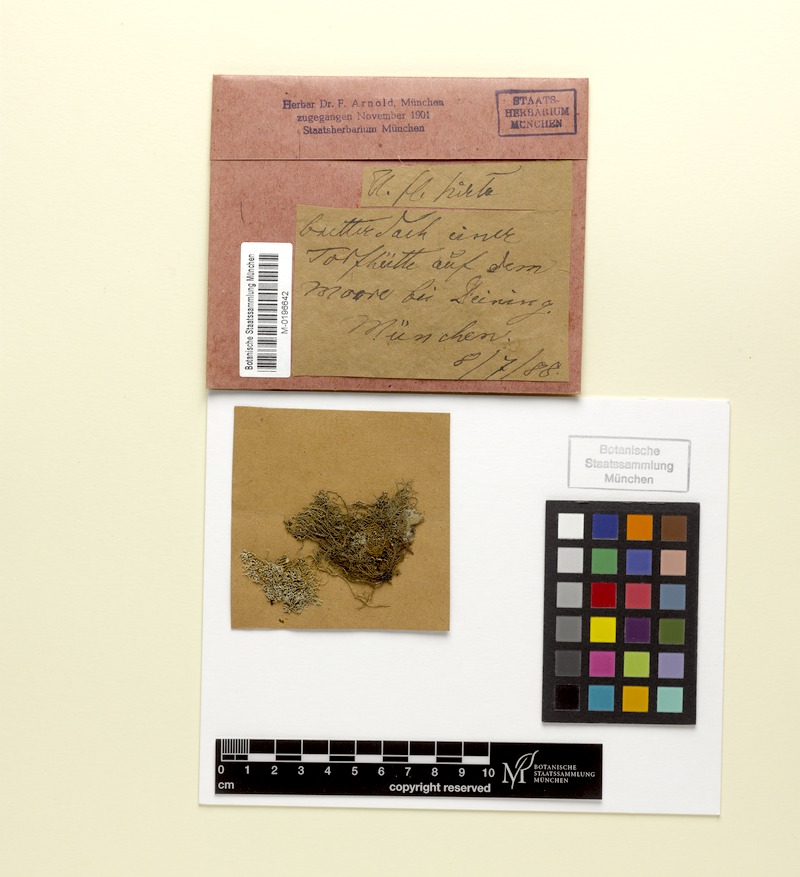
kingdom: Fungi
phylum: Ascomycota
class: Lecanoromycetes
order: Lecanorales
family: Parmeliaceae
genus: Usnea
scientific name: Usnea hirta
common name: Bristly beard lichen
